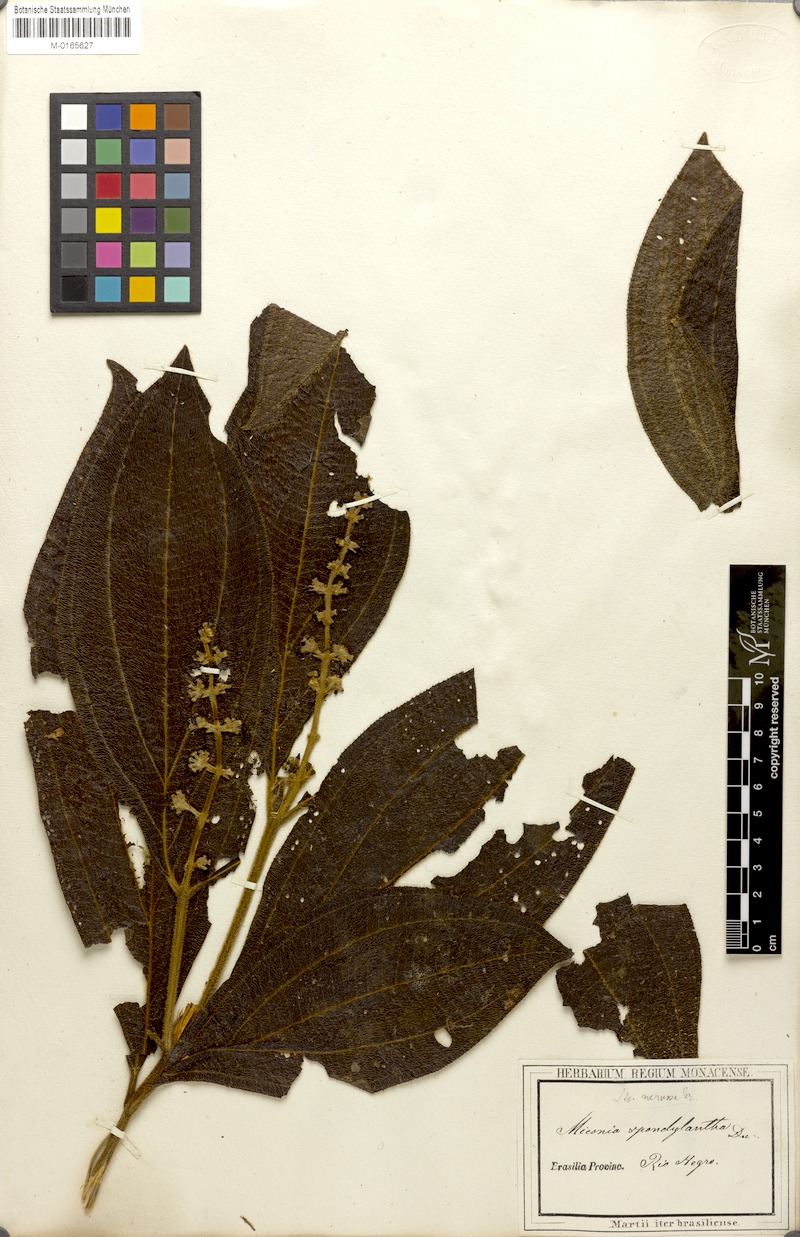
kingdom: Plantae
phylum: Tracheophyta
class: Magnoliopsida
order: Myrtales
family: Melastomataceae
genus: Miconia
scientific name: Miconia nervosa
